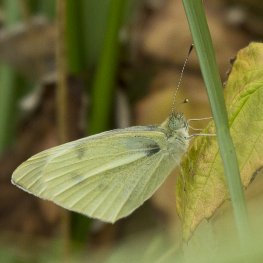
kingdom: Animalia
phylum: Arthropoda
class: Insecta
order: Lepidoptera
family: Pieridae
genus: Pieris
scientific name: Pieris rapae
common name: Cabbage White
